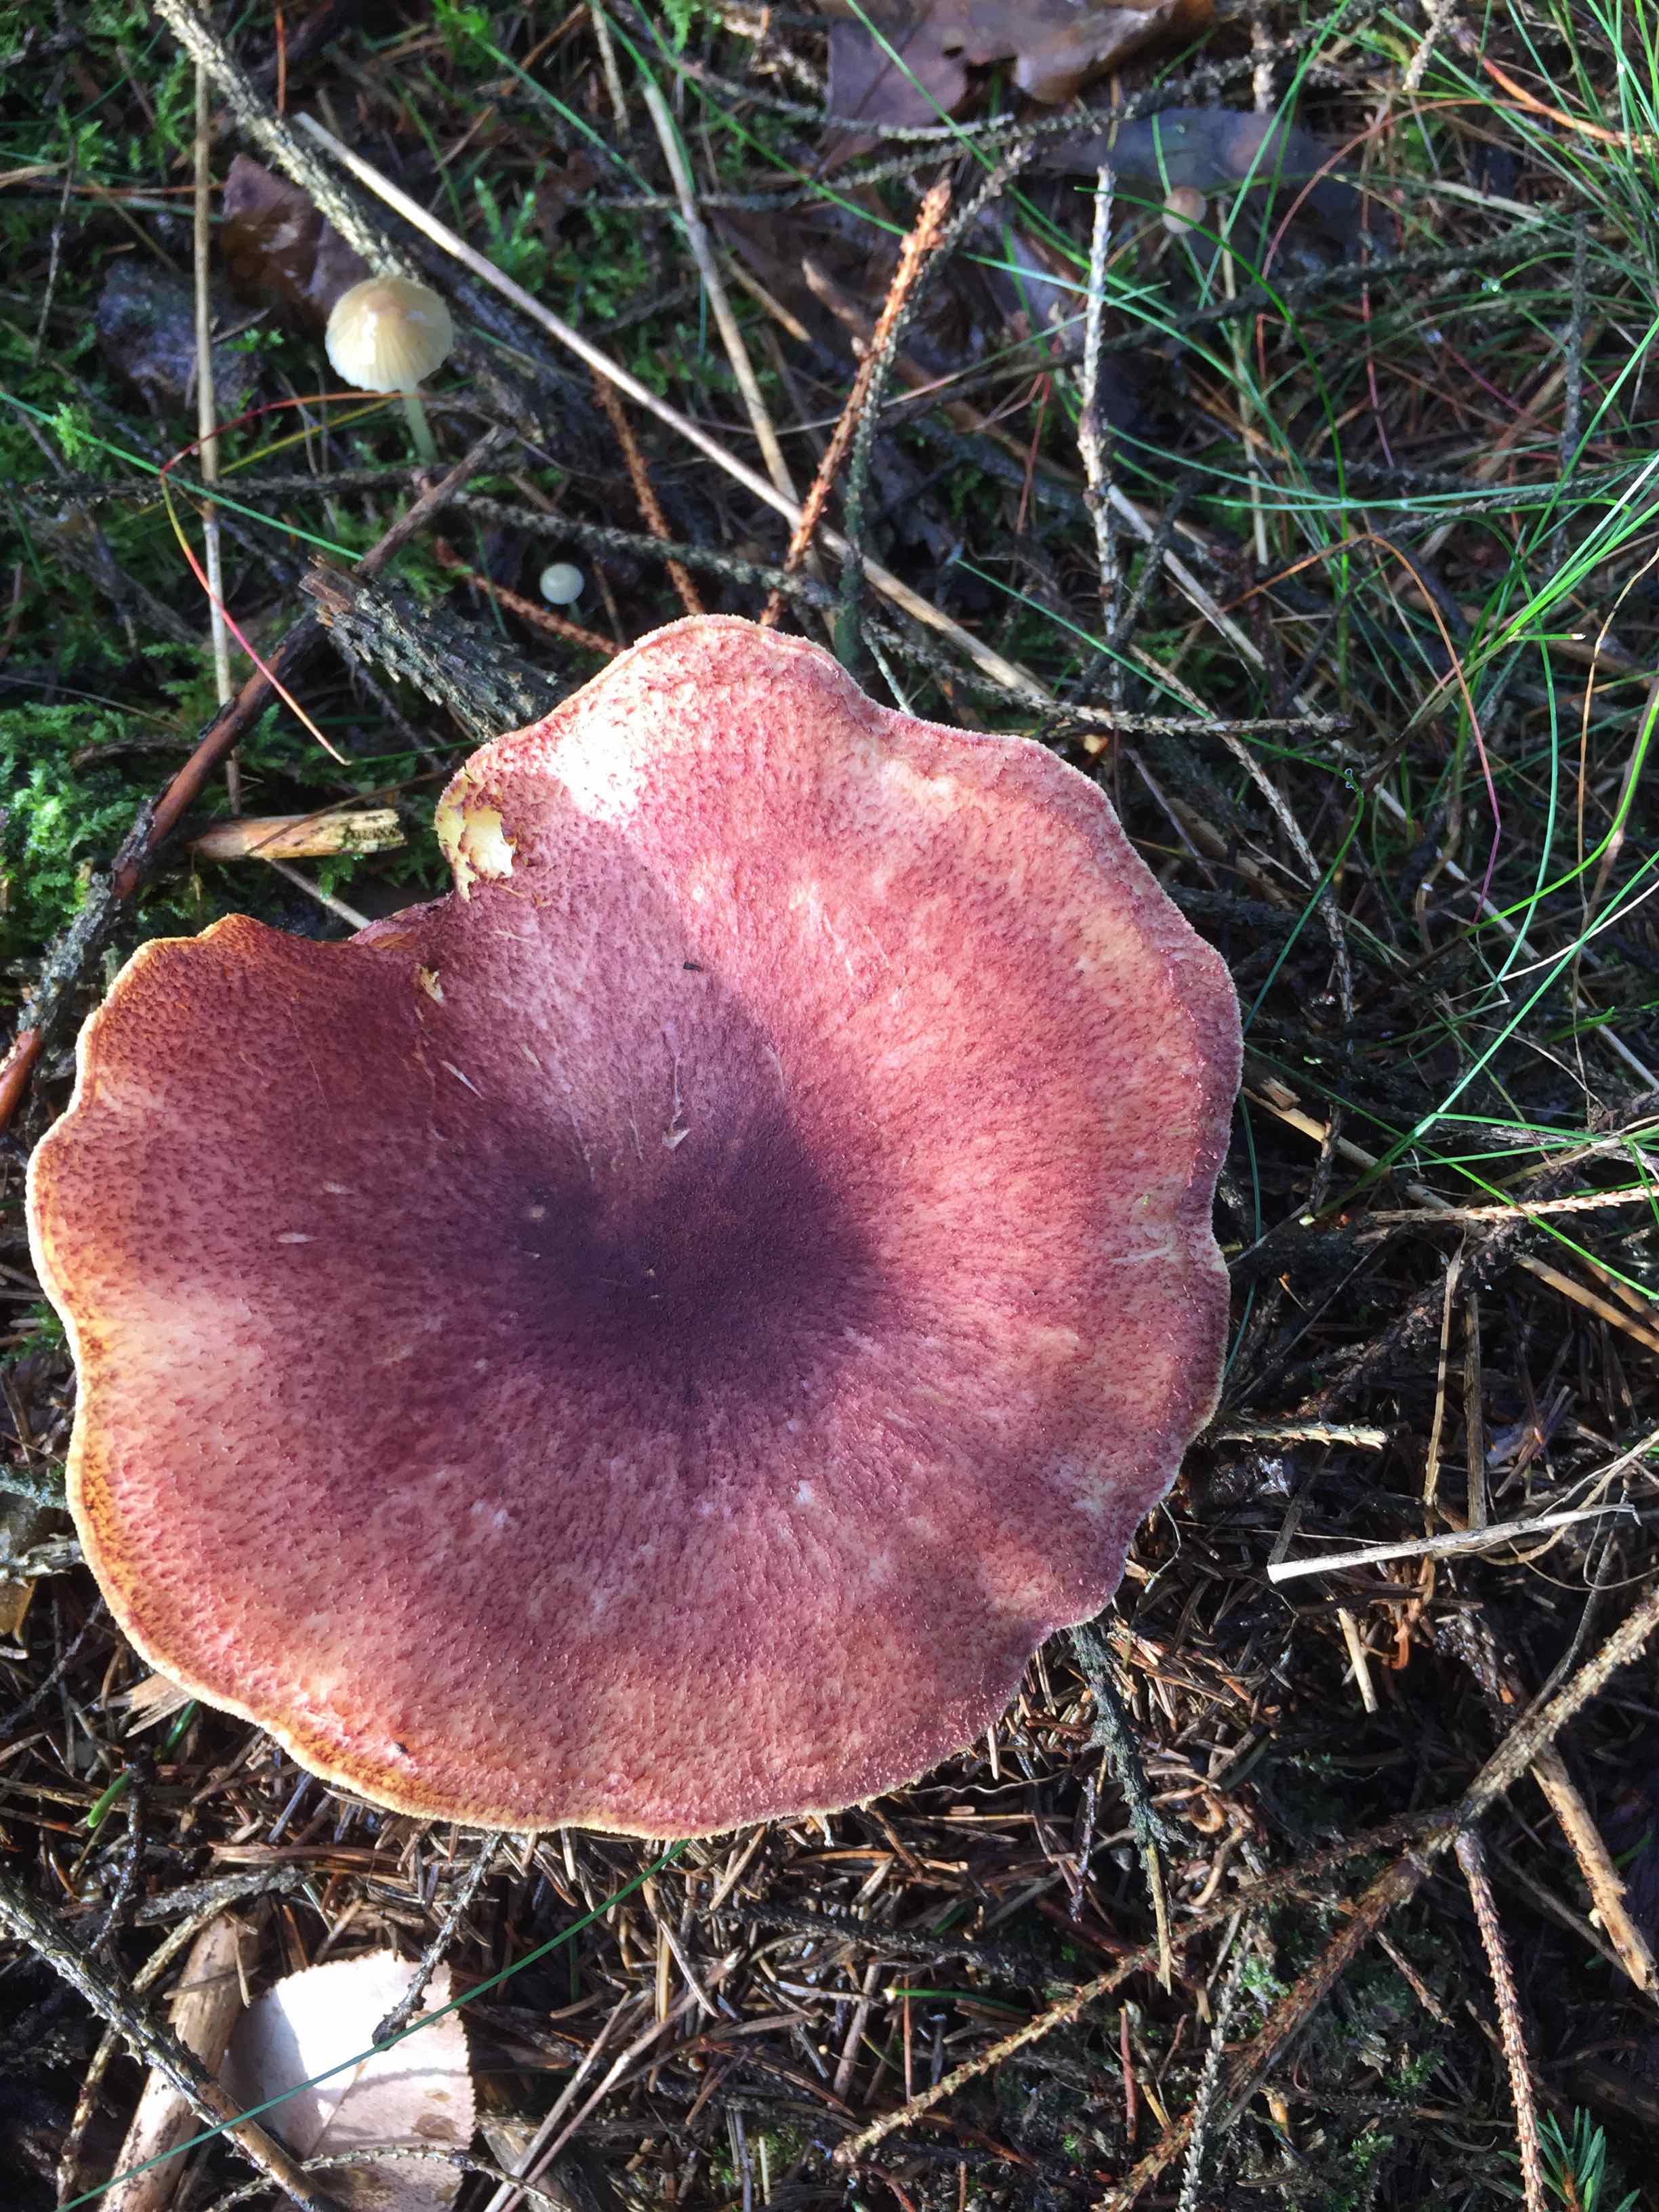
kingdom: Fungi
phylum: Basidiomycota
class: Agaricomycetes
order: Agaricales
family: Tricholomataceae
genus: Tricholomopsis
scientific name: Tricholomopsis rutilans
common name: purpur-væbnerhat
